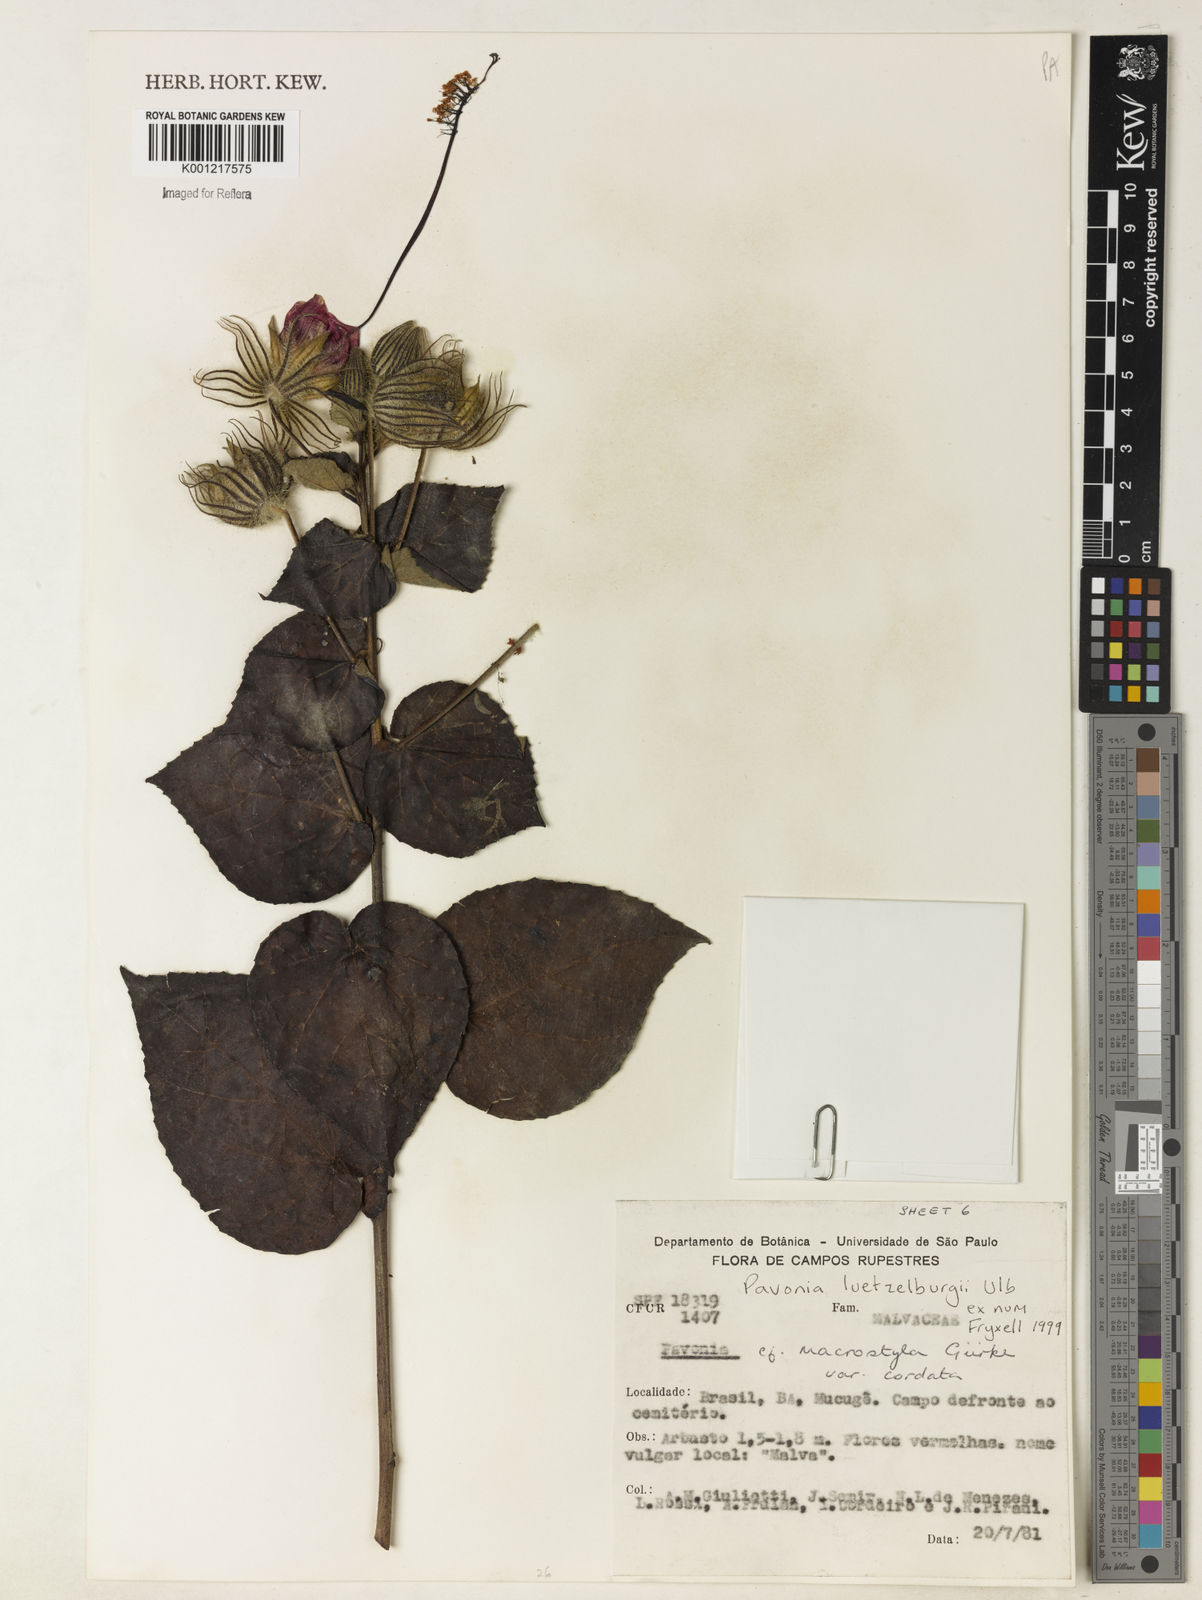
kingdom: Plantae
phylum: Tracheophyta
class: Magnoliopsida
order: Malvales
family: Malvaceae
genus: Pavonia
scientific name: Pavonia luetzelburgii
